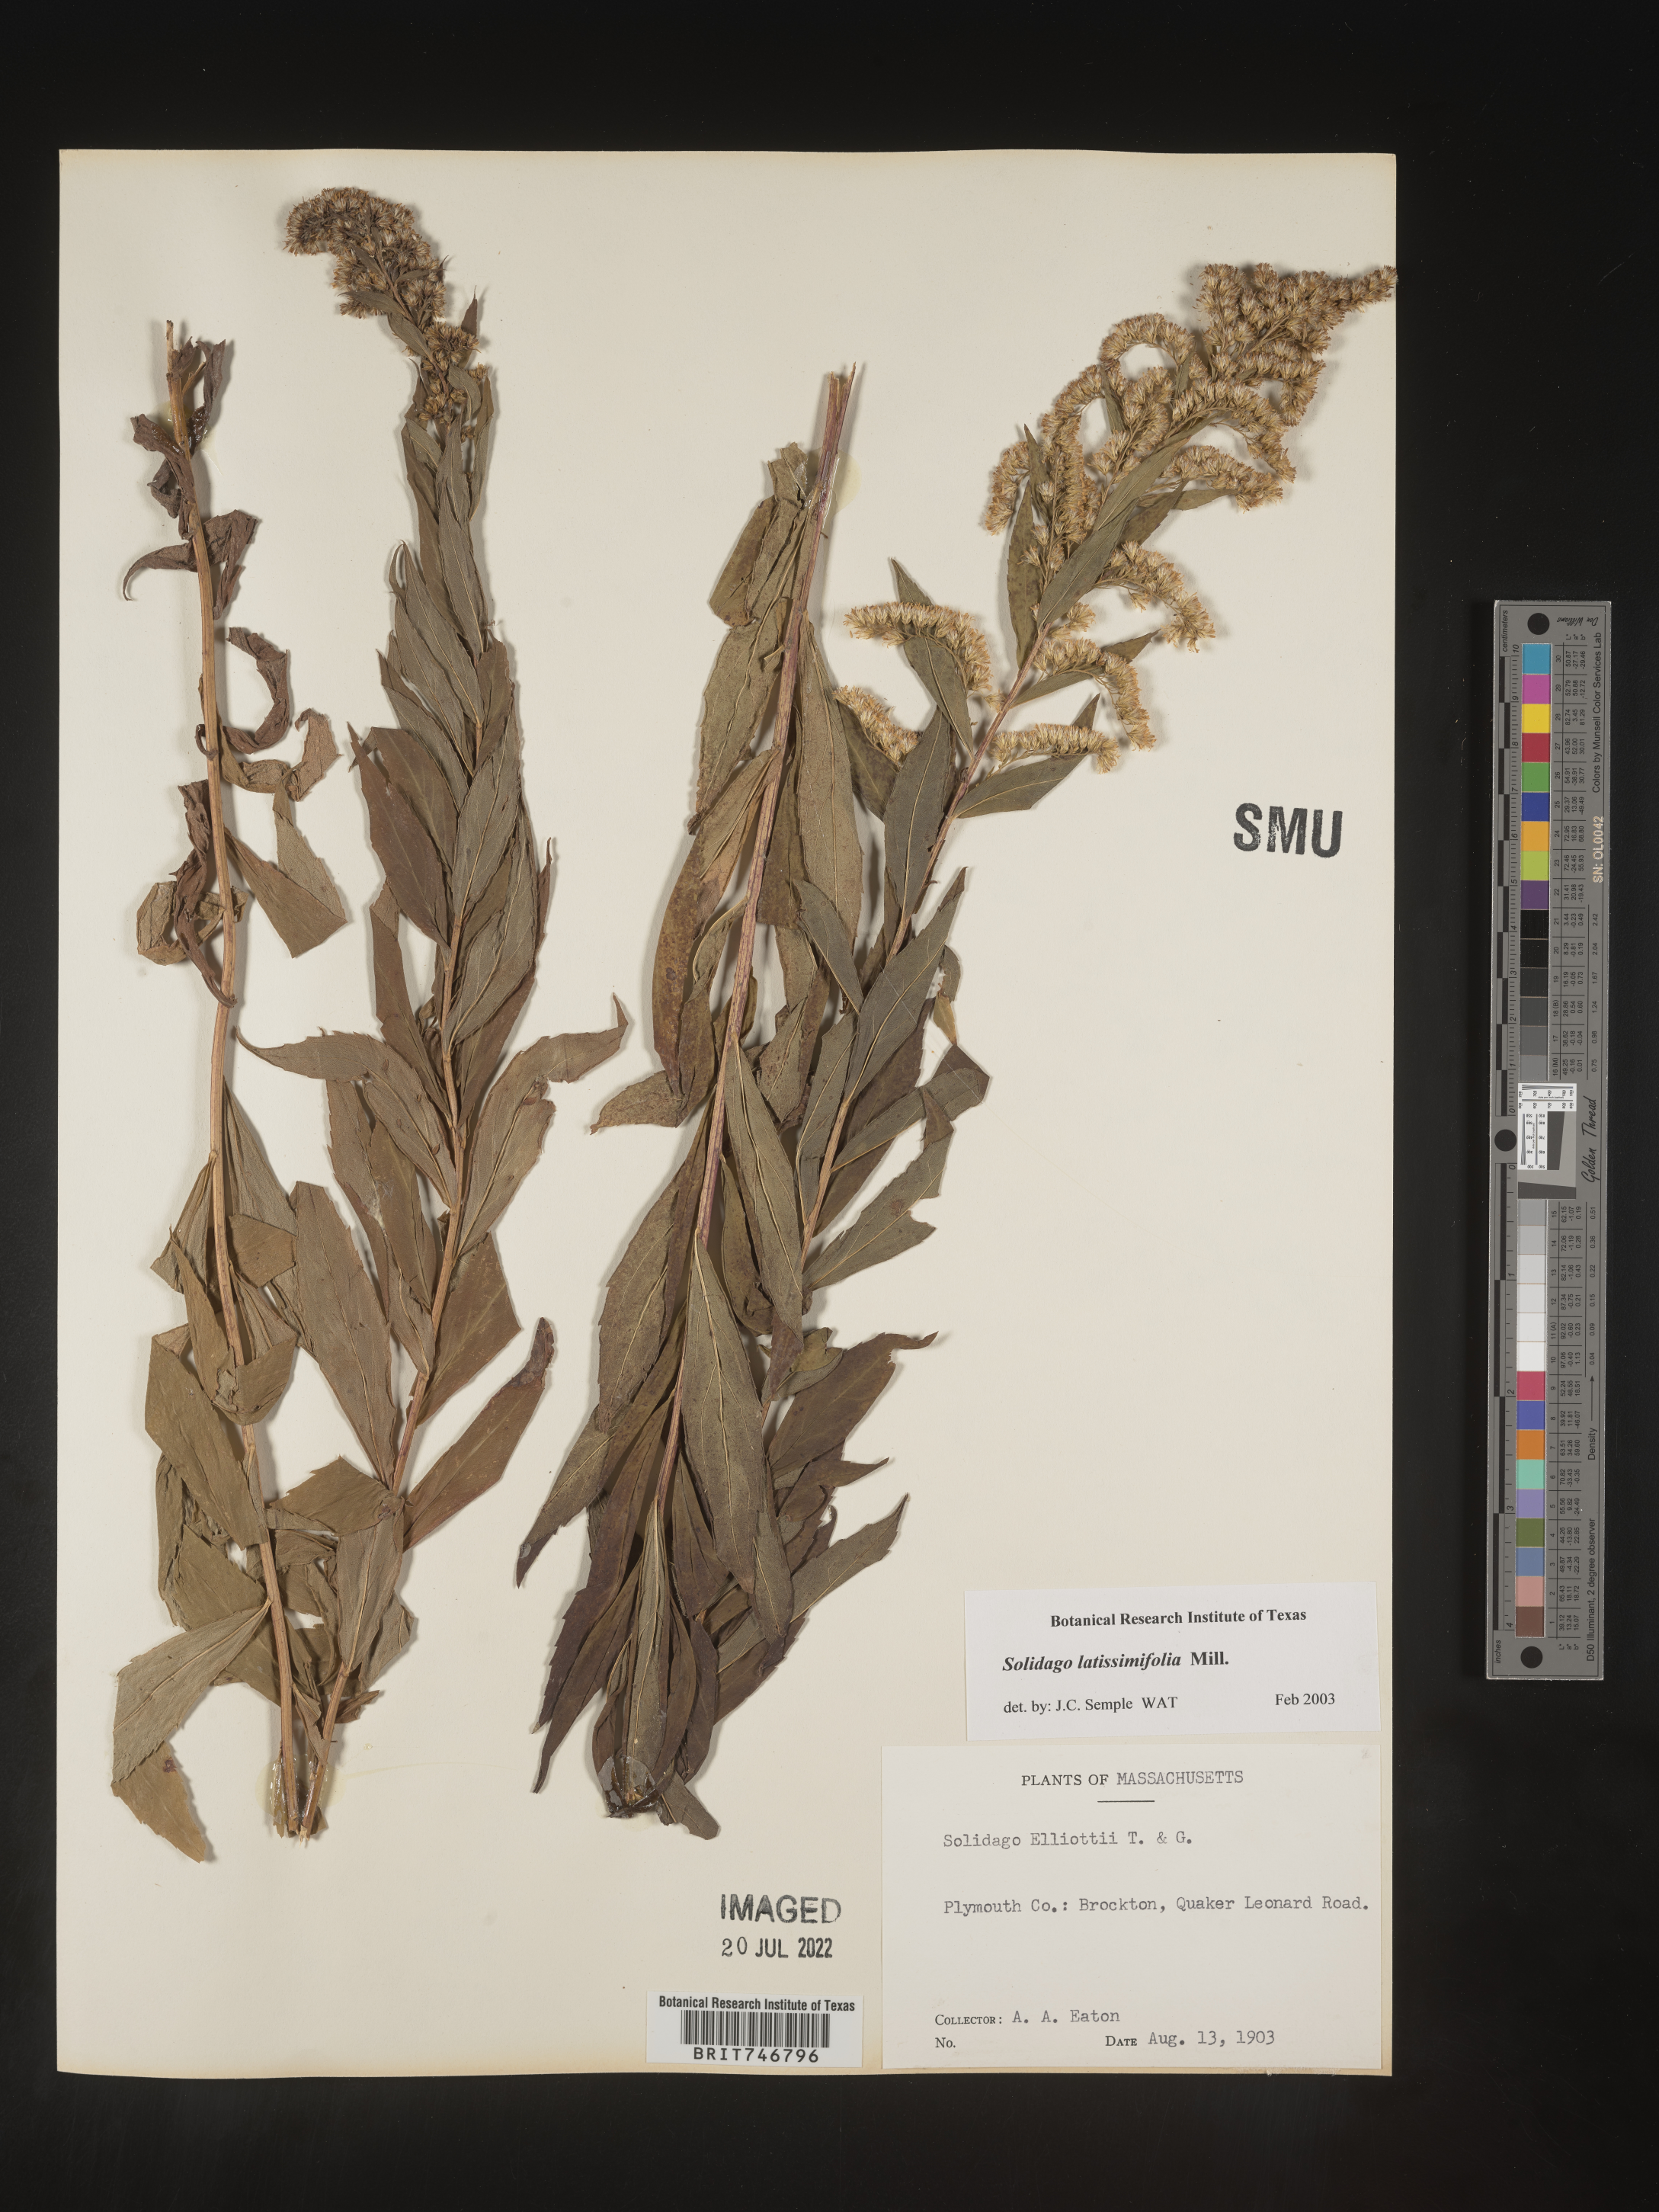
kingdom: Plantae
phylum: Tracheophyta
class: Magnoliopsida
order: Asterales
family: Asteraceae
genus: Solidago
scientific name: Solidago latissimifolia
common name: Elliott's goldenrod
